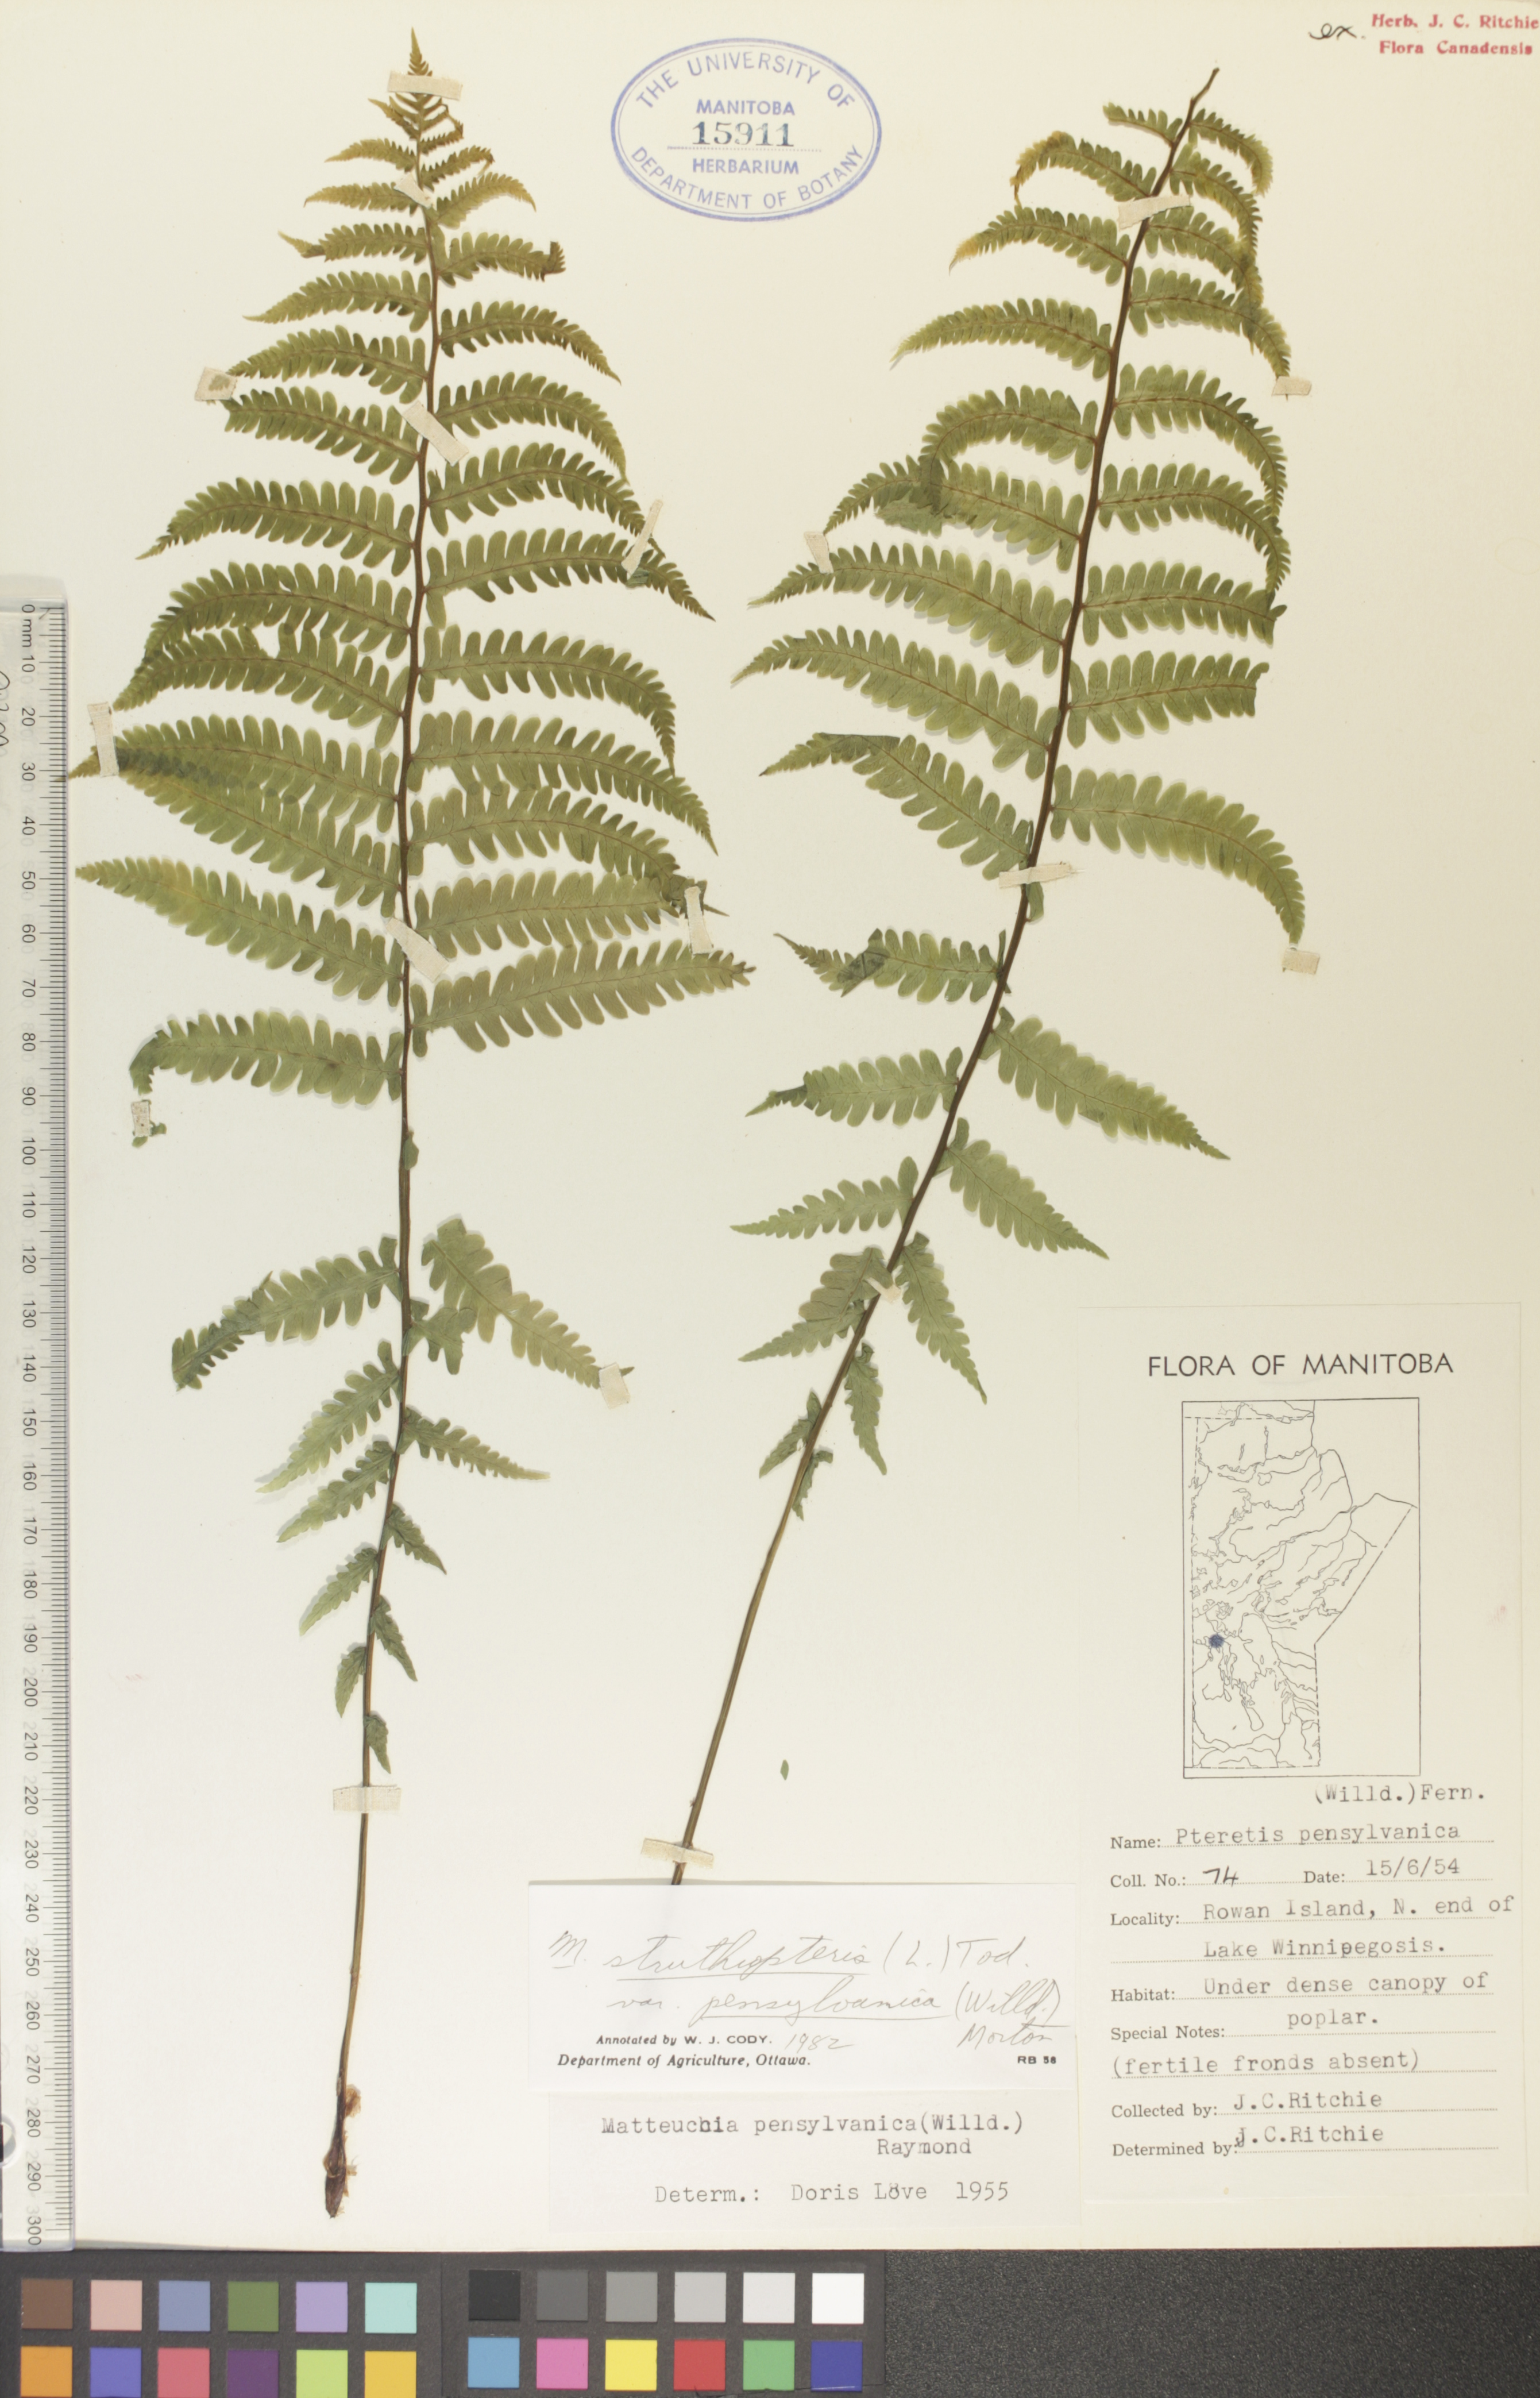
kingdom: Plantae
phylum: Tracheophyta
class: Polypodiopsida
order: Polypodiales
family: Onocleaceae
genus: Matteuccia
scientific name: Matteuccia pensylvanica
